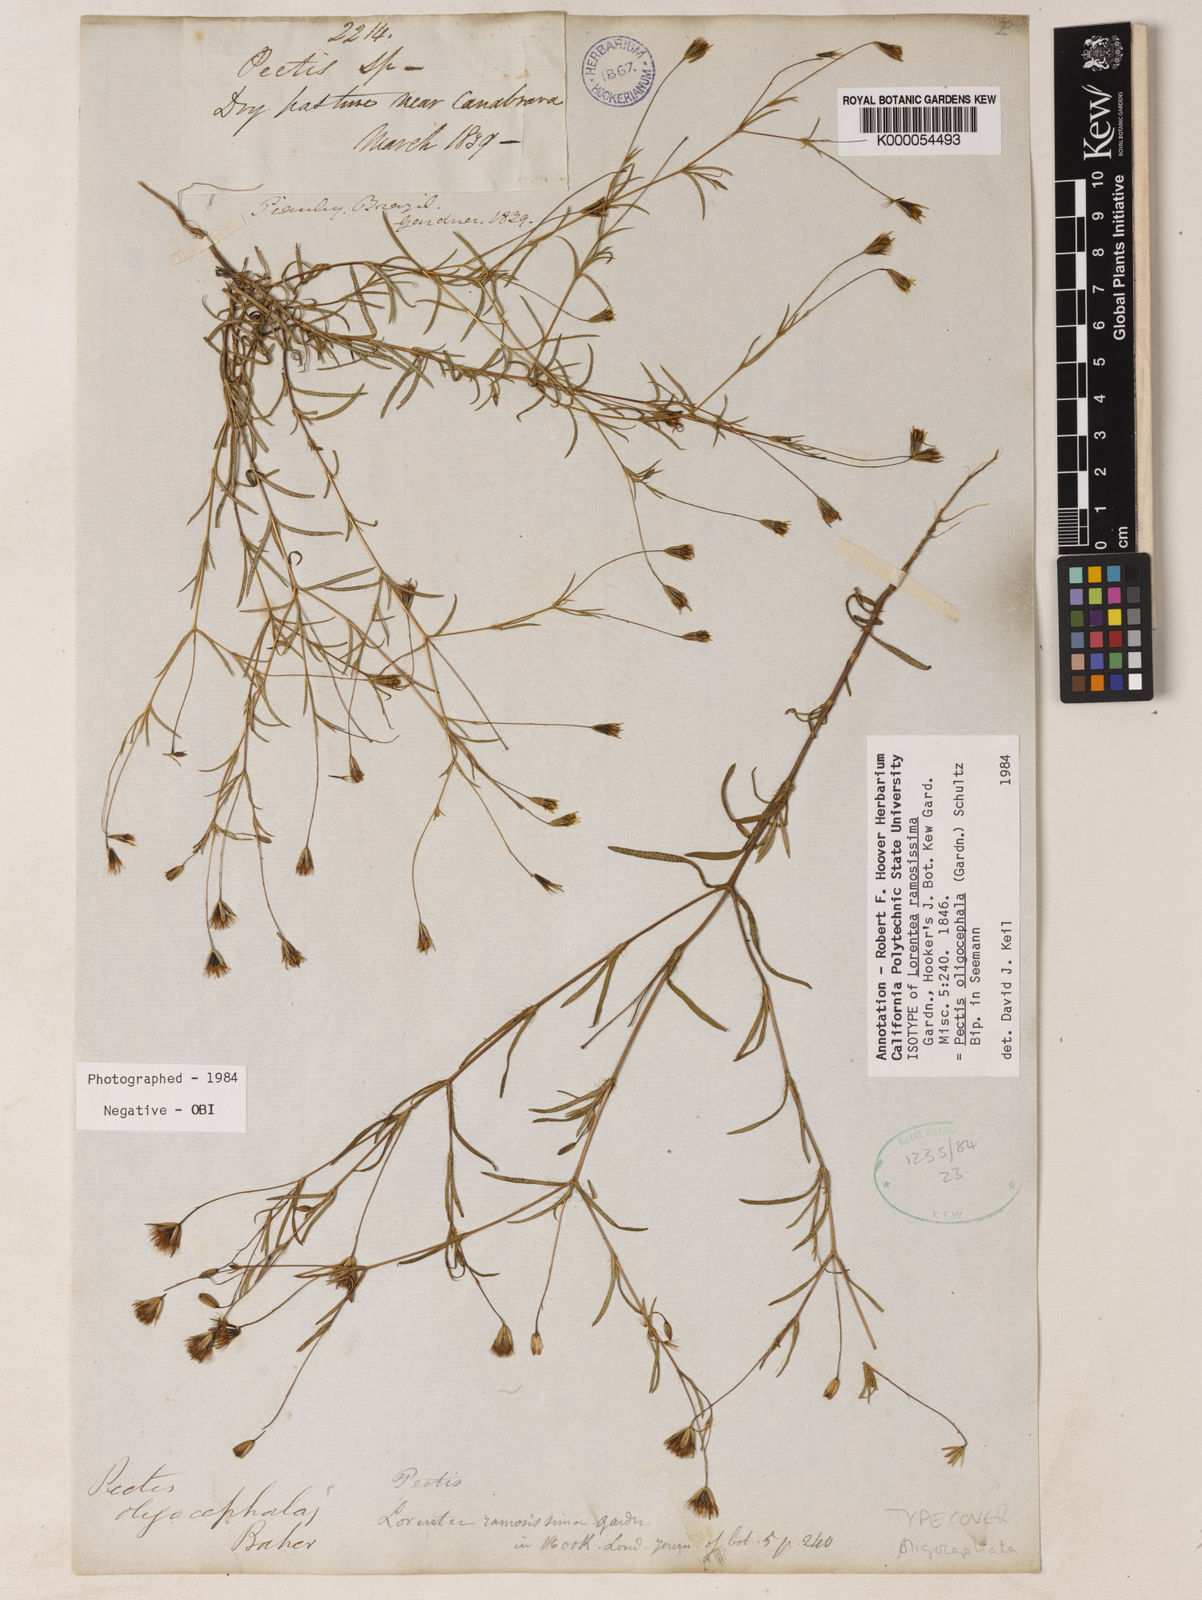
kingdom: Plantae
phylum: Tracheophyta
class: Magnoliopsida
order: Asterales
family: Asteraceae
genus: Pectis
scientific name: Pectis oligocephala
